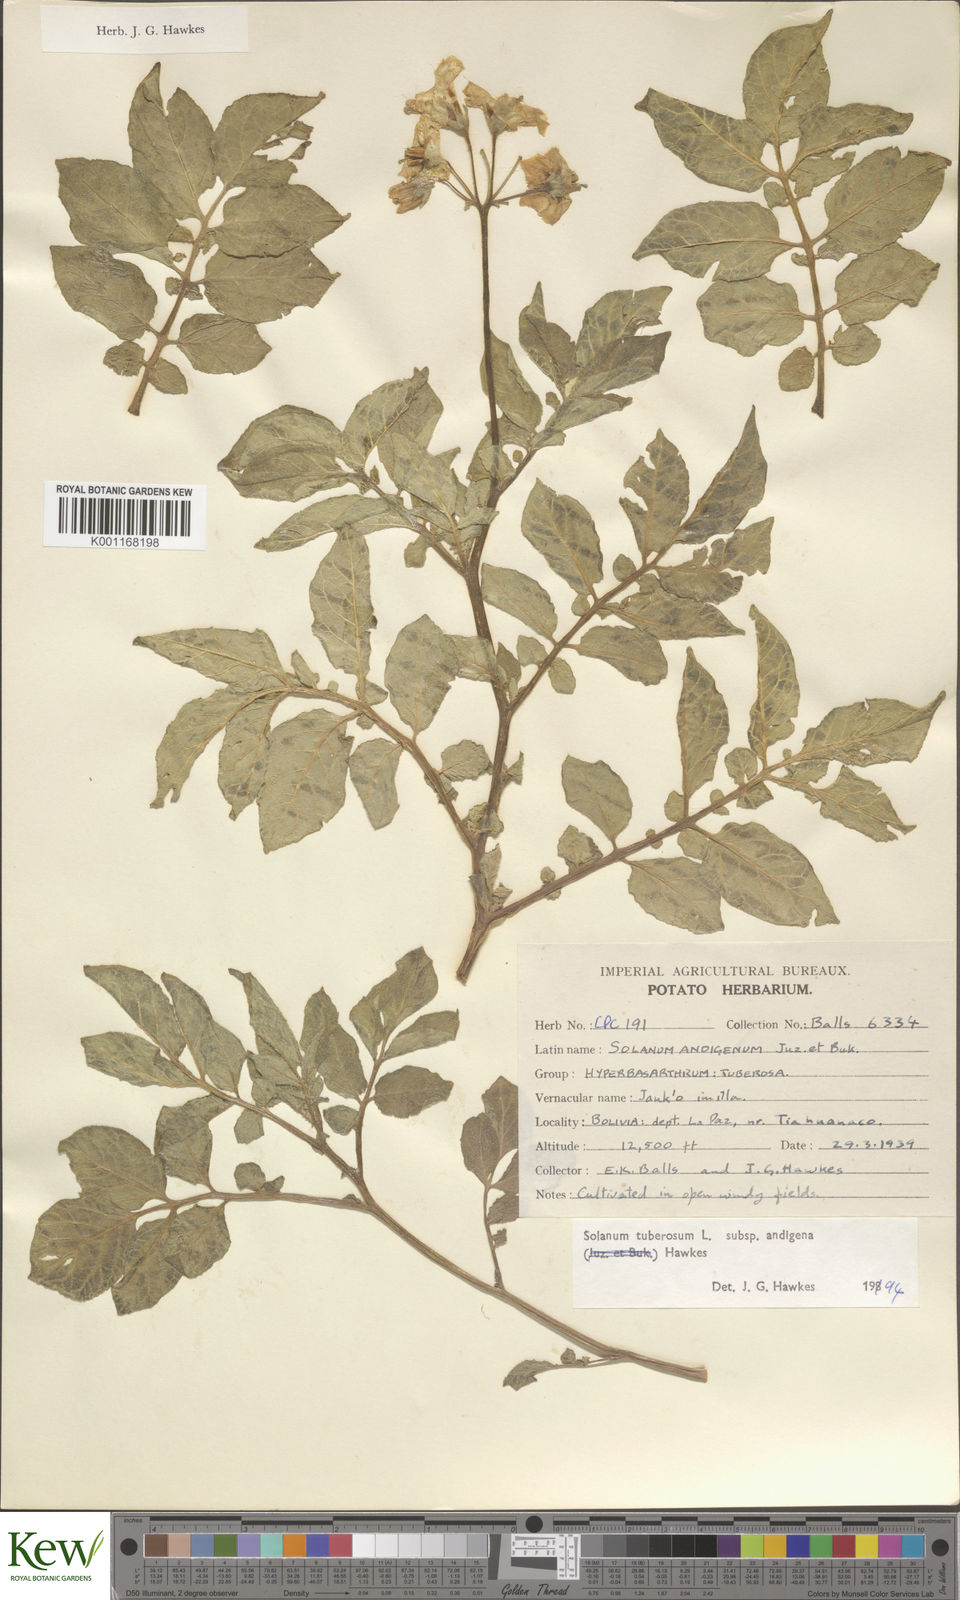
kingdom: Plantae
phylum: Tracheophyta
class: Magnoliopsida
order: Solanales
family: Solanaceae
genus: Solanum
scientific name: Solanum tuberosum
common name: Potato
